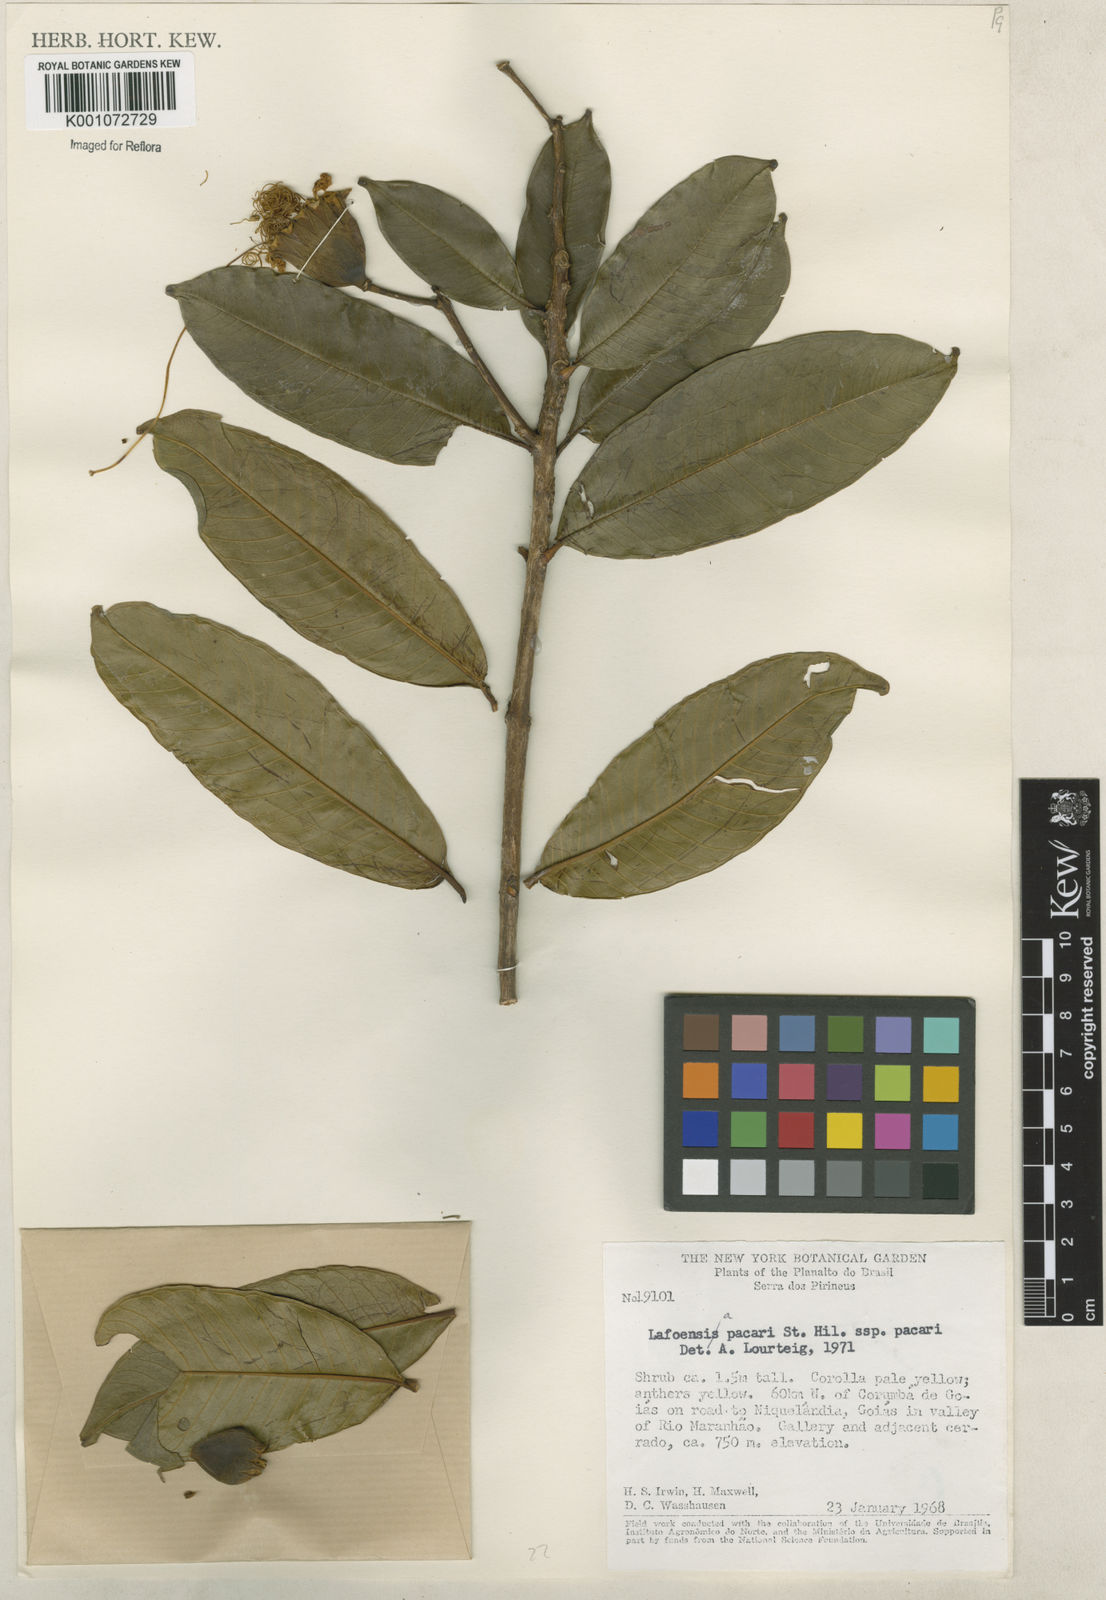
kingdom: Plantae
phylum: Tracheophyta
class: Magnoliopsida
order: Myrtales
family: Lythraceae
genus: Lafoensia
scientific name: Lafoensia pacari
